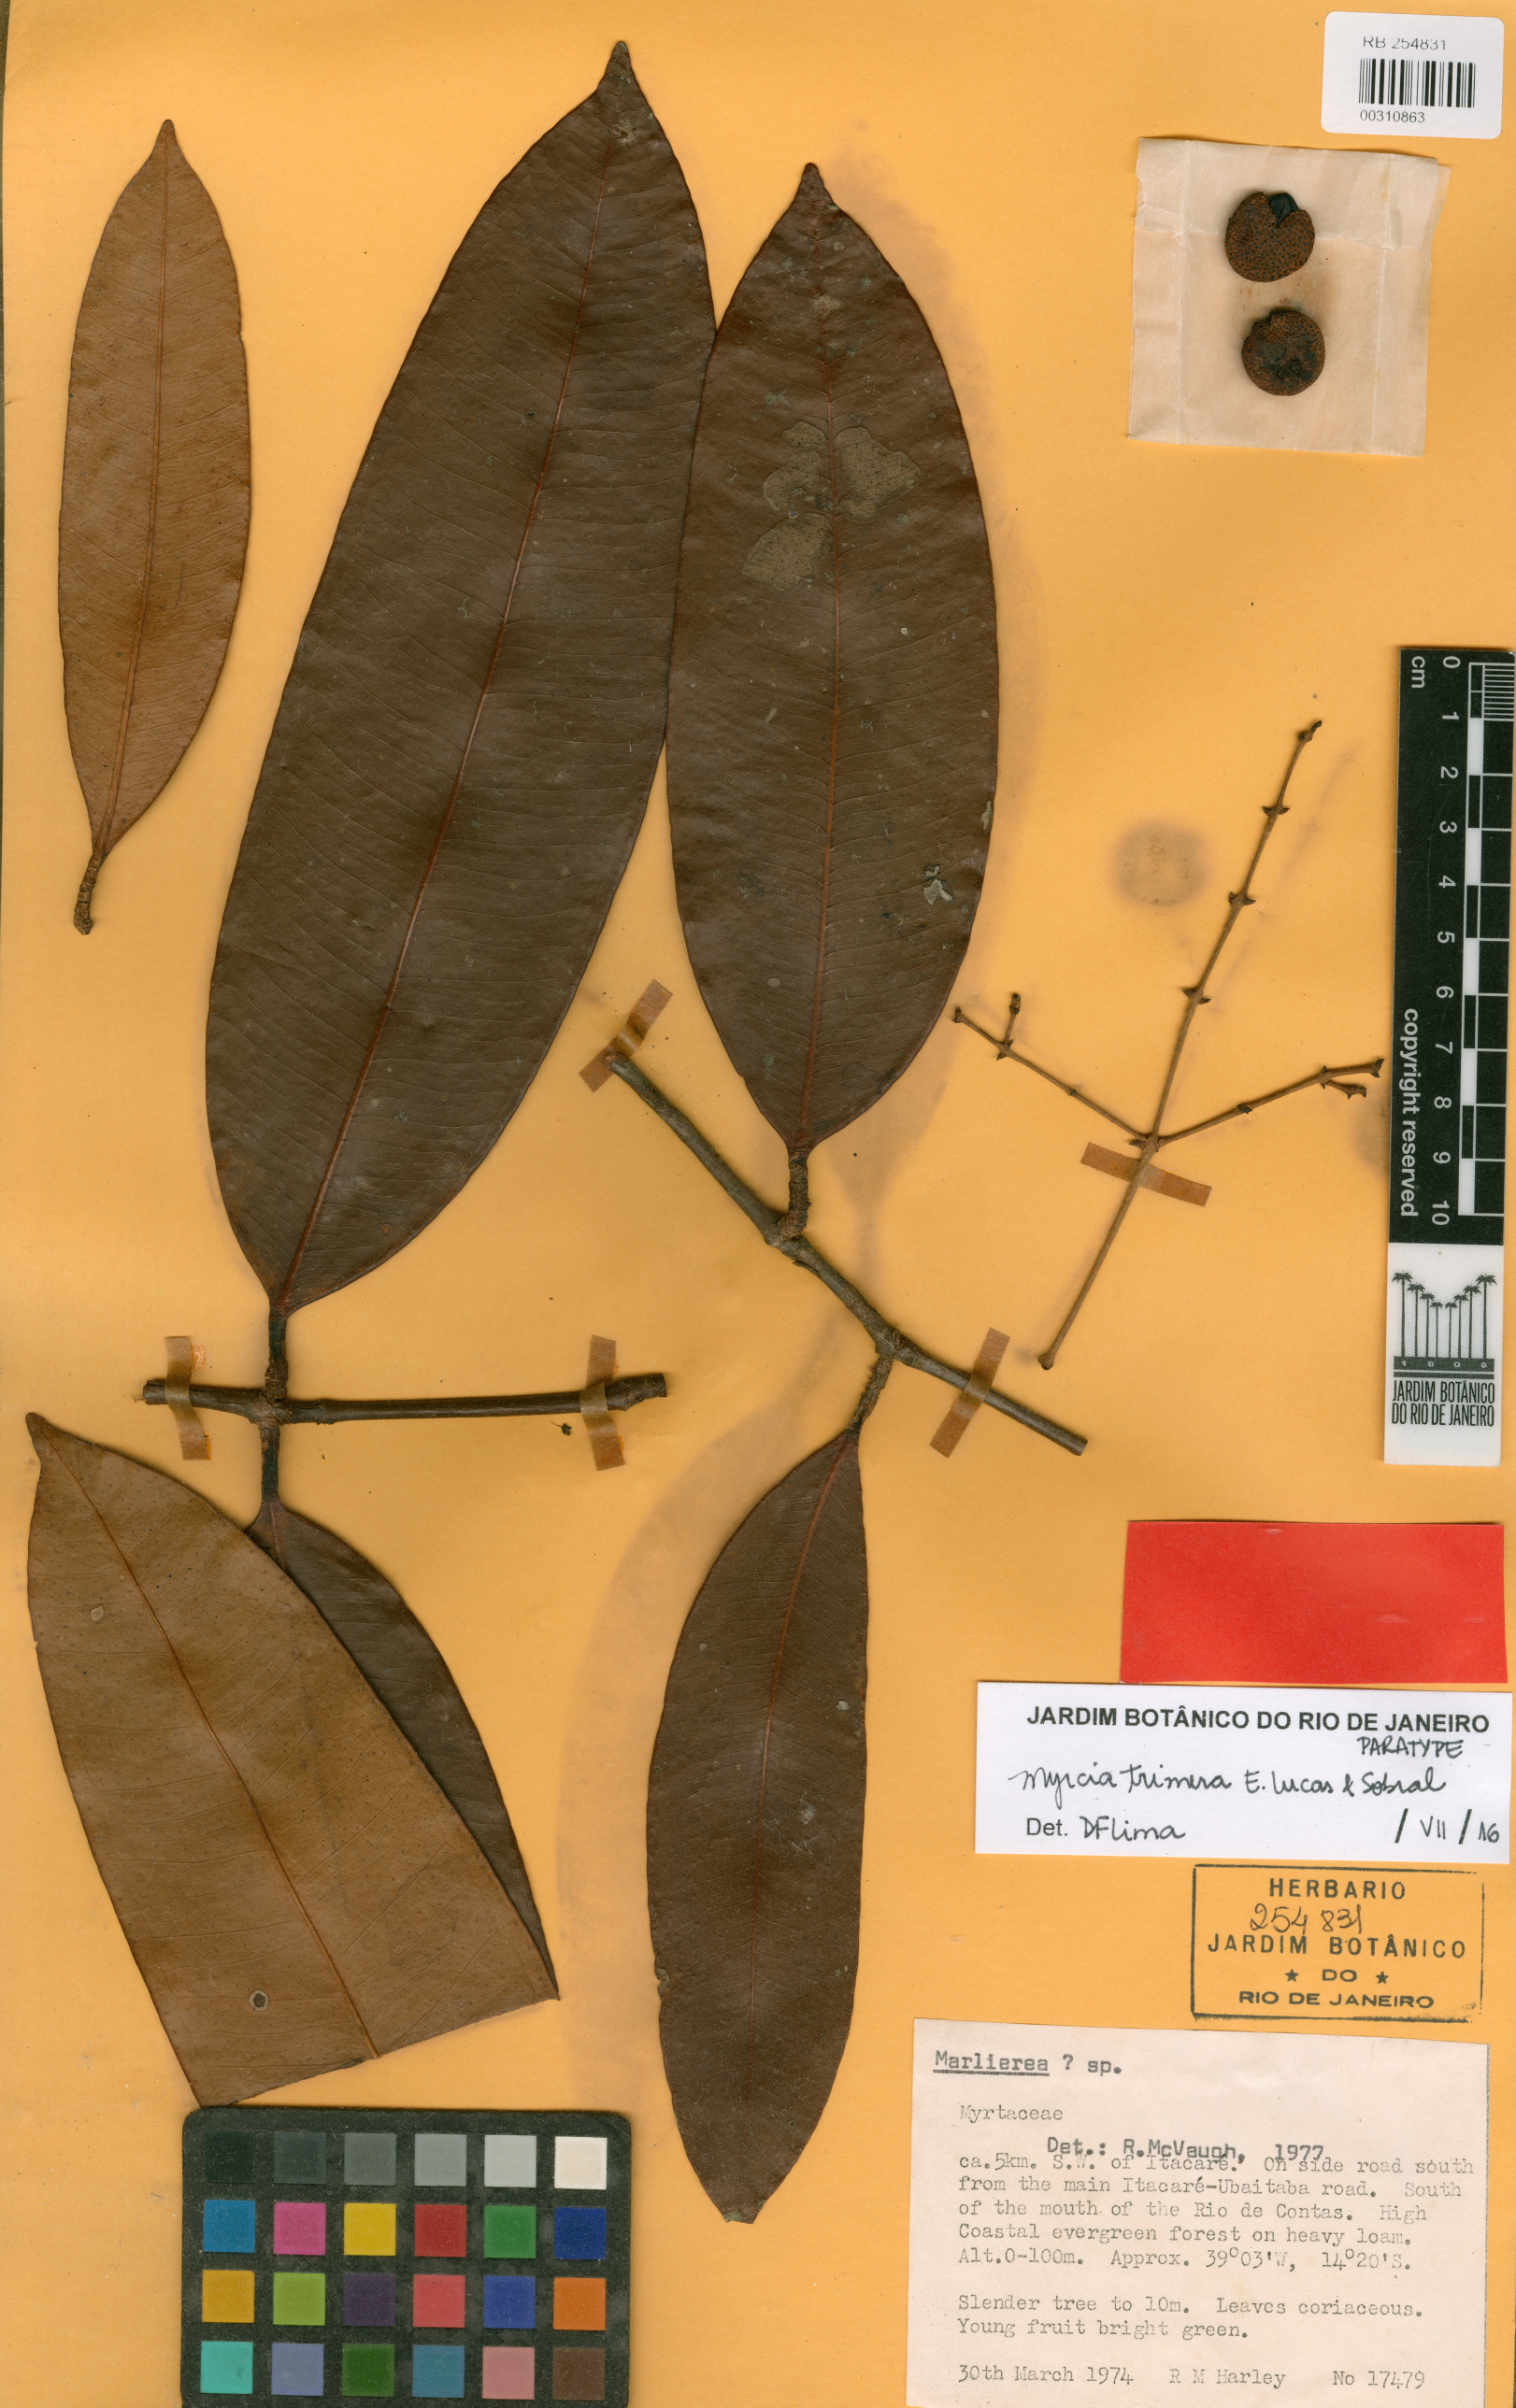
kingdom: Plantae
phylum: Tracheophyta
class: Magnoliopsida
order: Myrtales
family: Myrtaceae
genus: Myrcia
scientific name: Myrcia trimera
